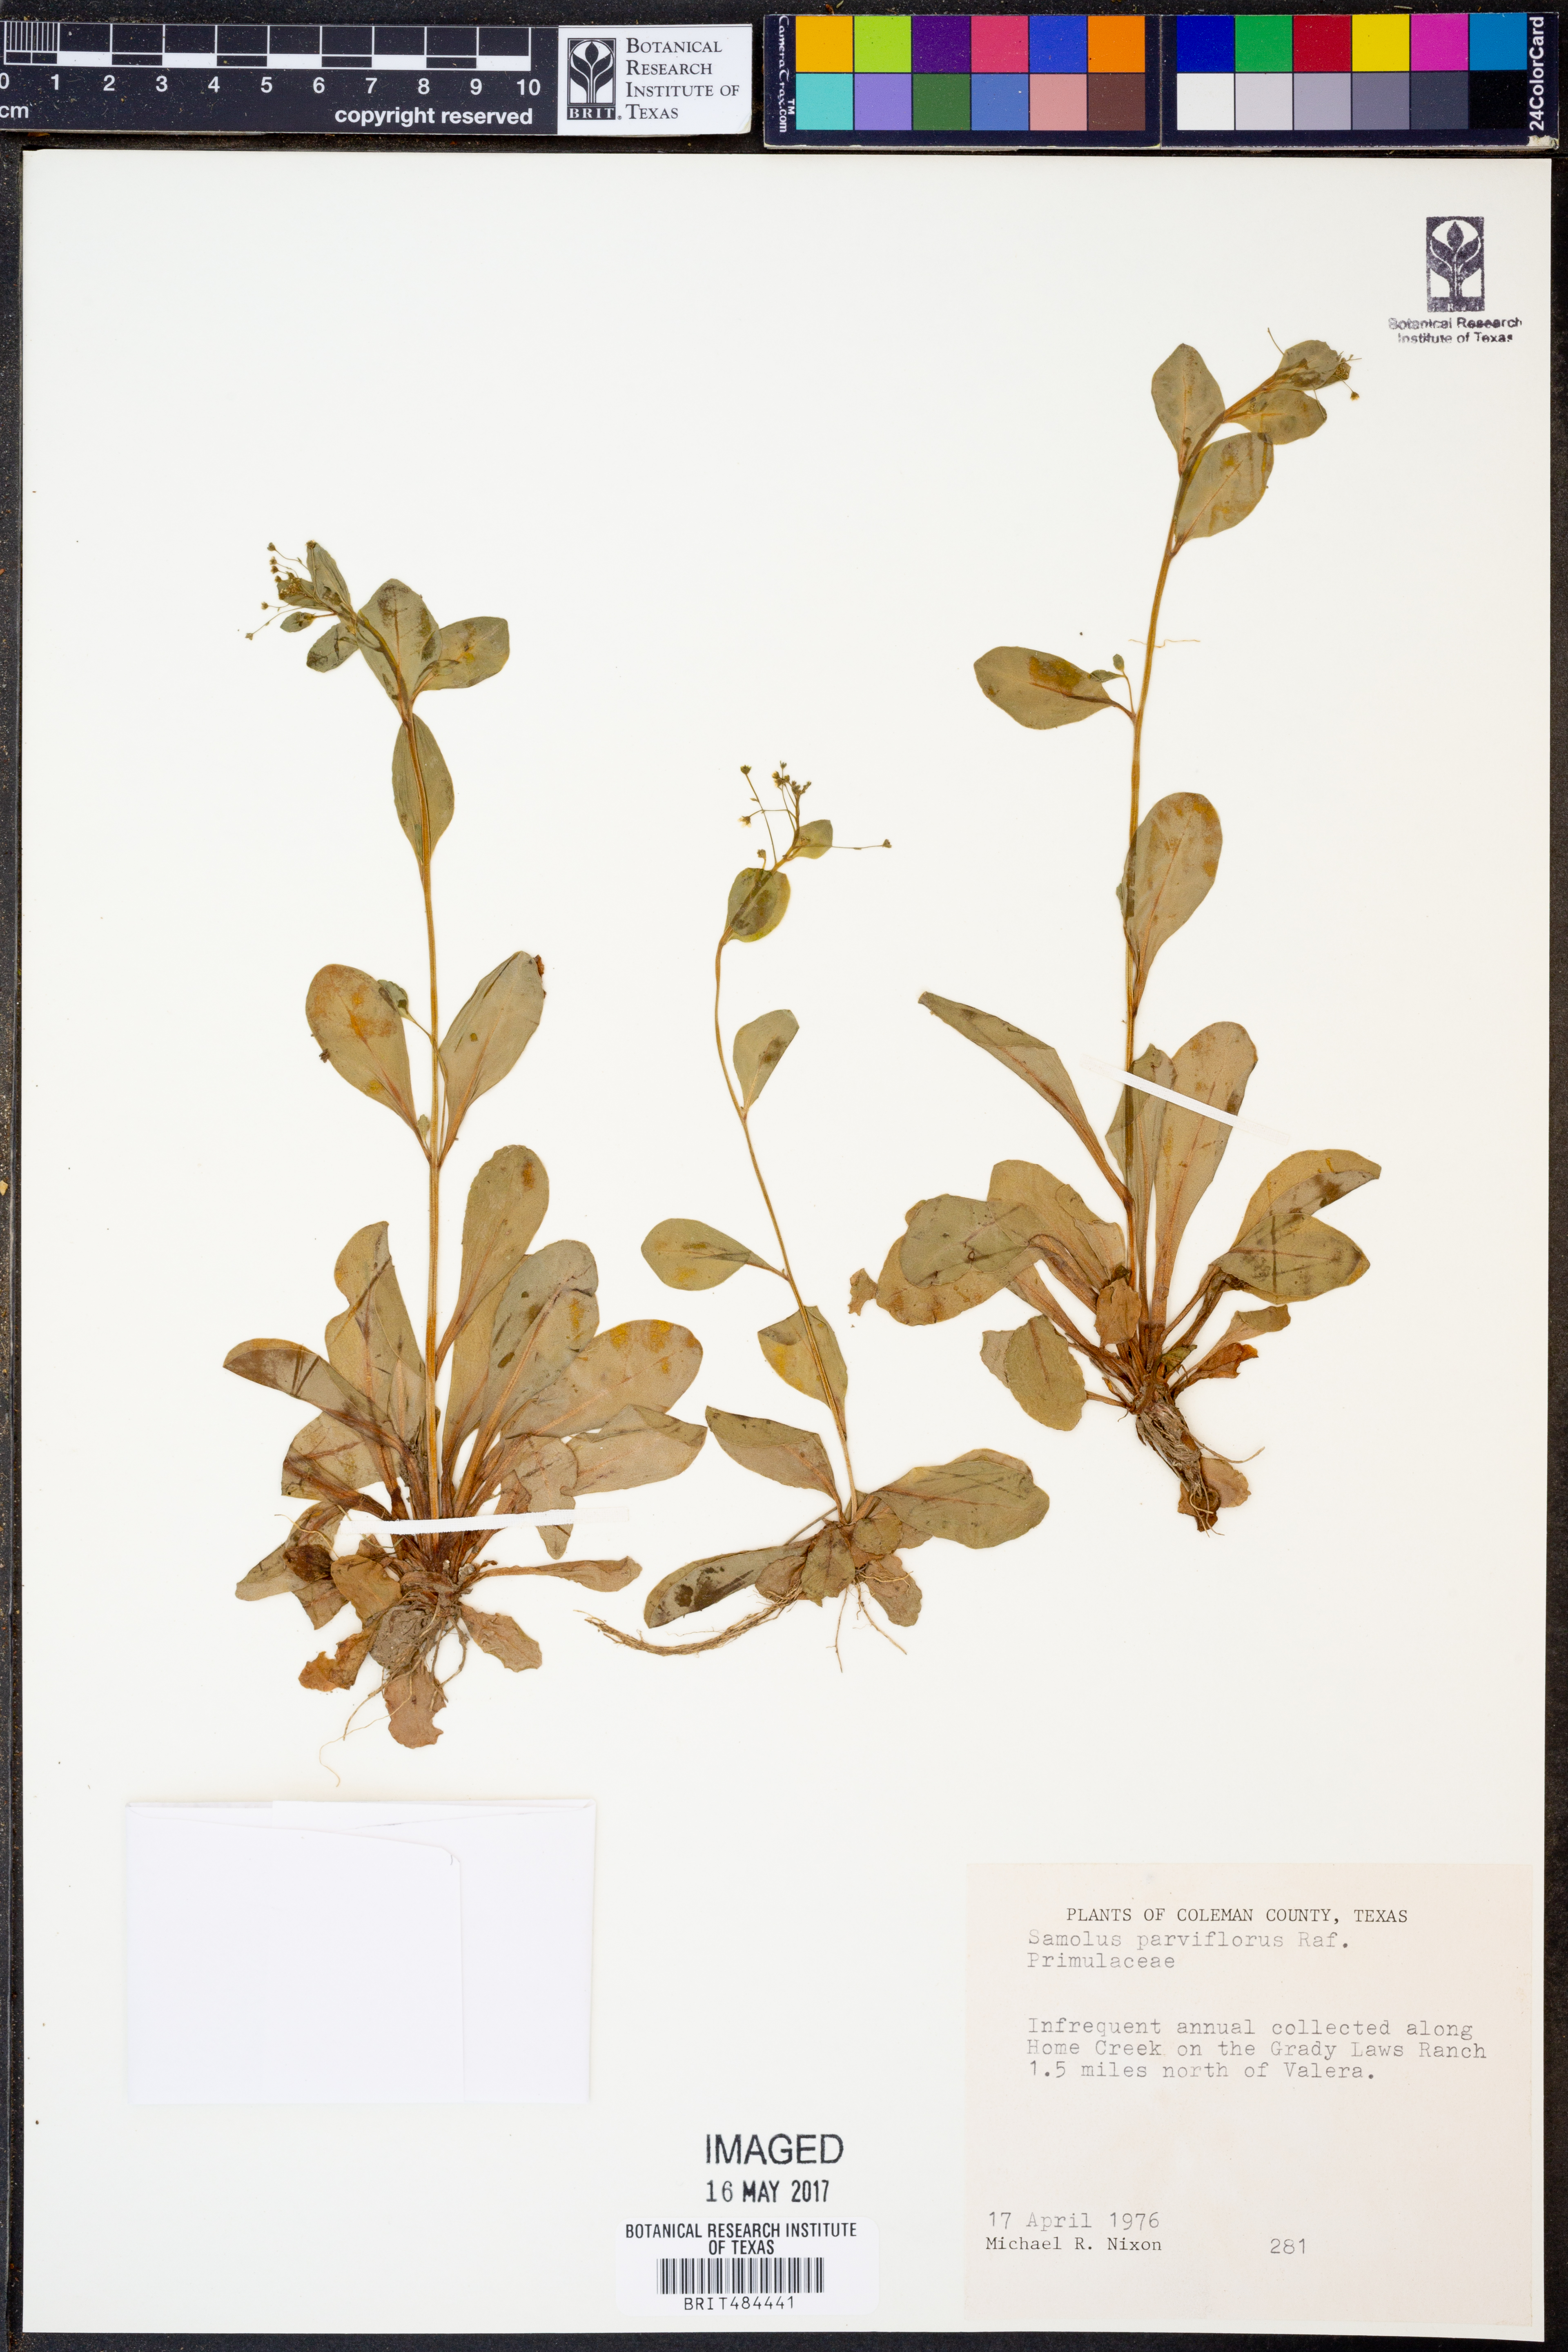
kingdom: Plantae
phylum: Tracheophyta
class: Magnoliopsida
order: Ericales
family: Primulaceae
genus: Samolus
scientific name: Samolus parviflorus
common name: False water pimpernel
